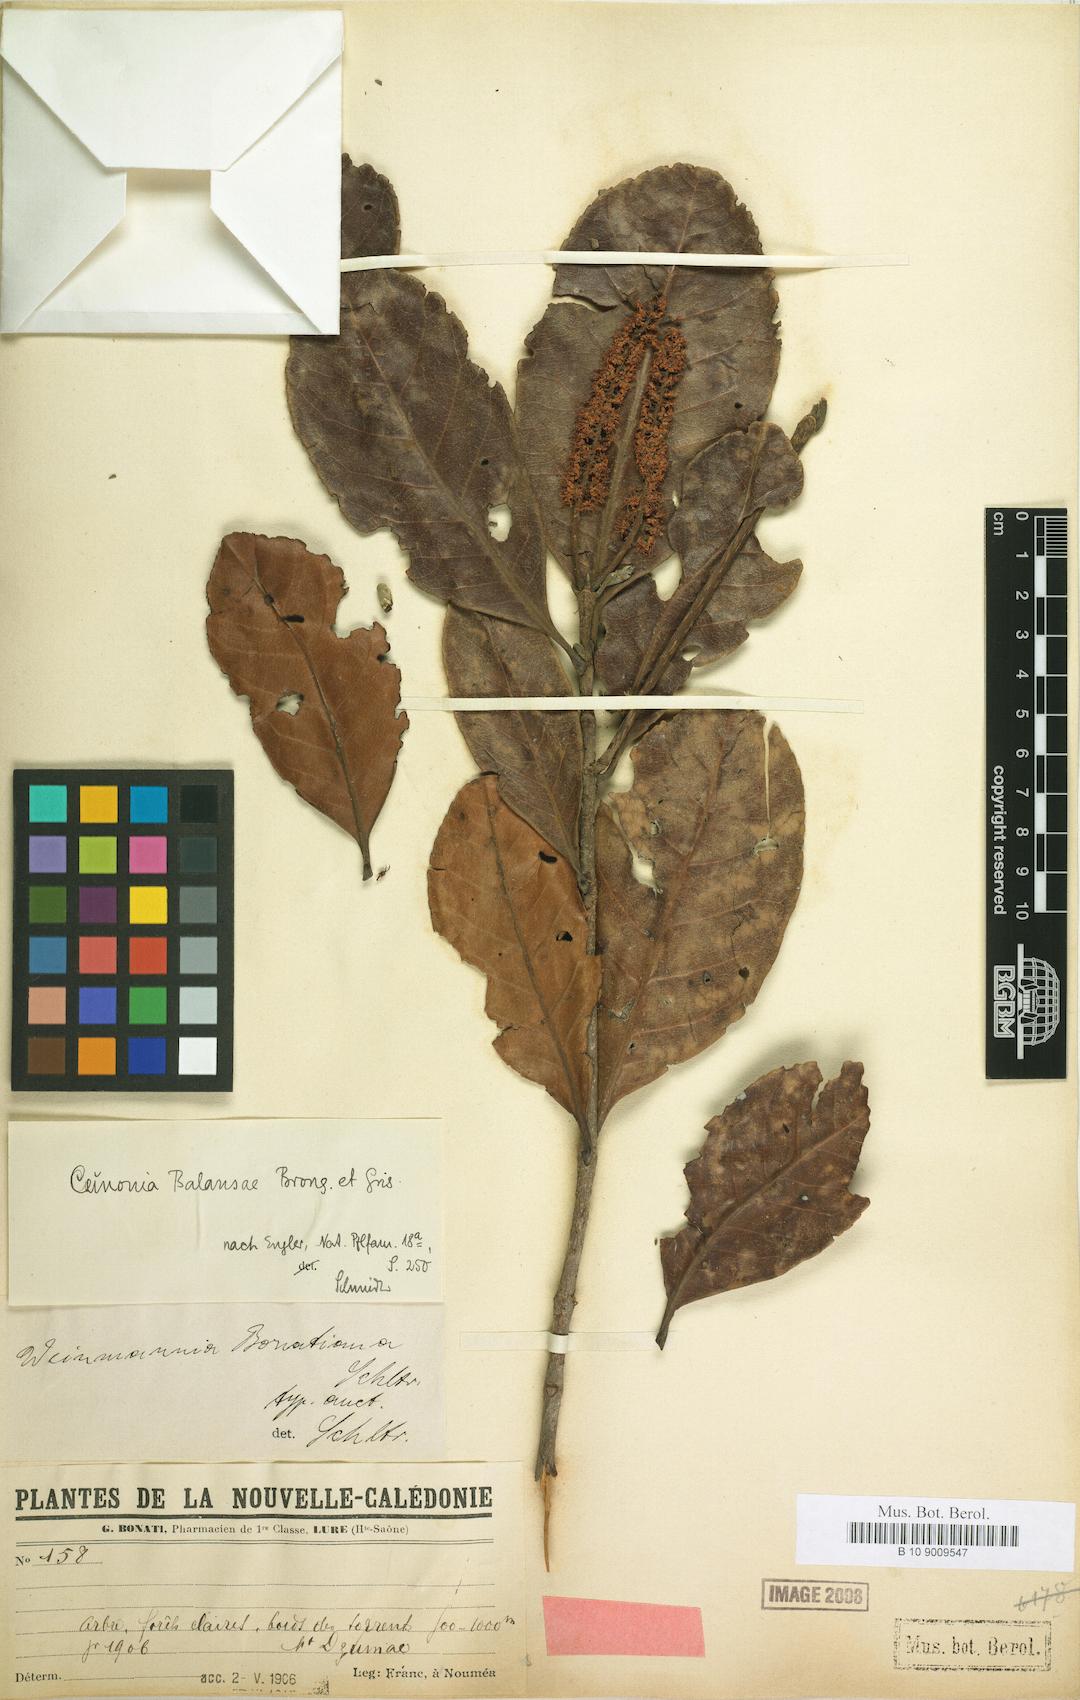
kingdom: Plantae
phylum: Tracheophyta
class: Magnoliopsida
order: Oxalidales
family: Cunoniaceae
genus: Cunonia
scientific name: Cunonia balansae
